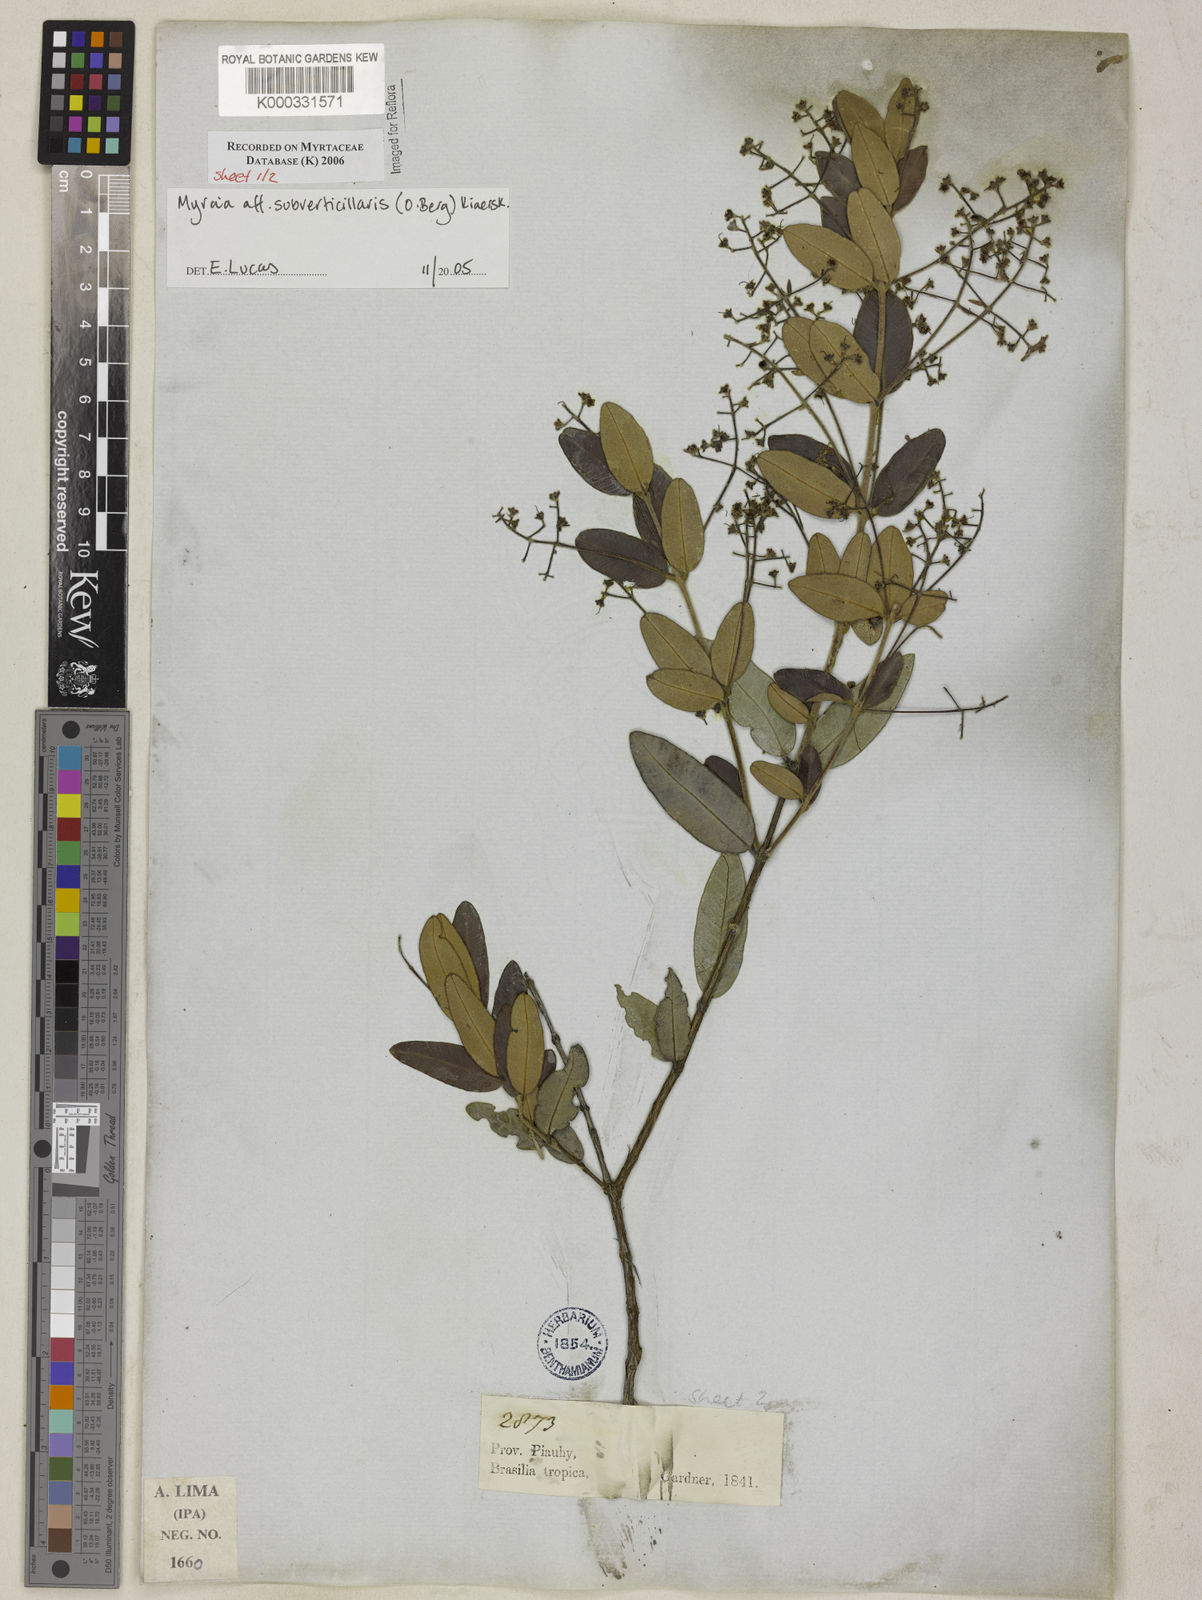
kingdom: Plantae
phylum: Tracheophyta
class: Magnoliopsida
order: Myrtales
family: Myrtaceae
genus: Myrcia
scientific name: Myrcia
